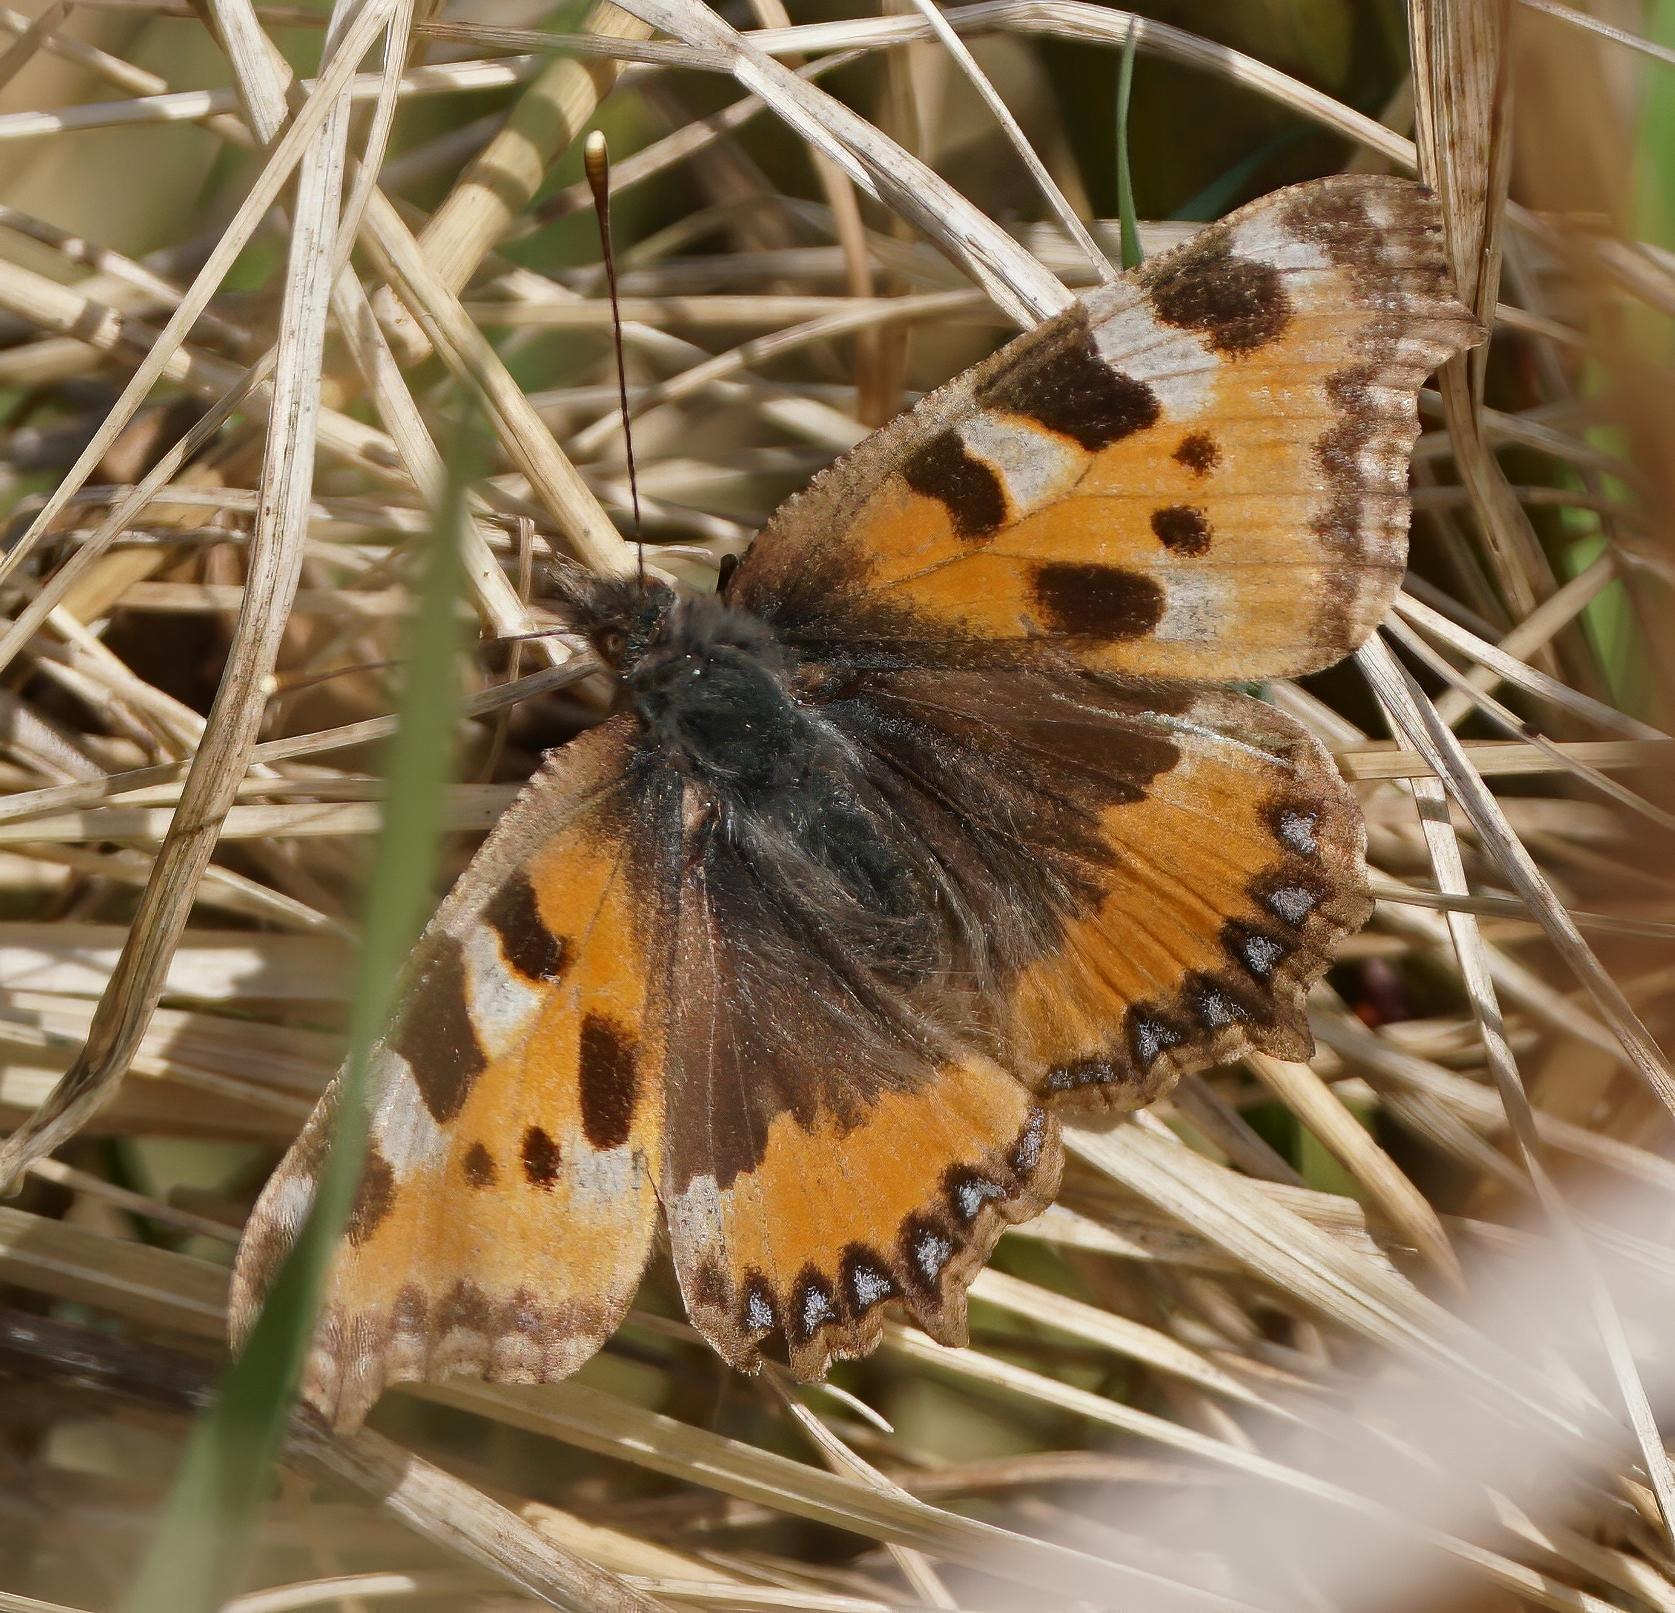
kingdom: Animalia
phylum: Arthropoda
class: Insecta
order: Lepidoptera
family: Nymphalidae
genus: Aglais
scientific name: Aglais urticae
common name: Nældens takvinge
